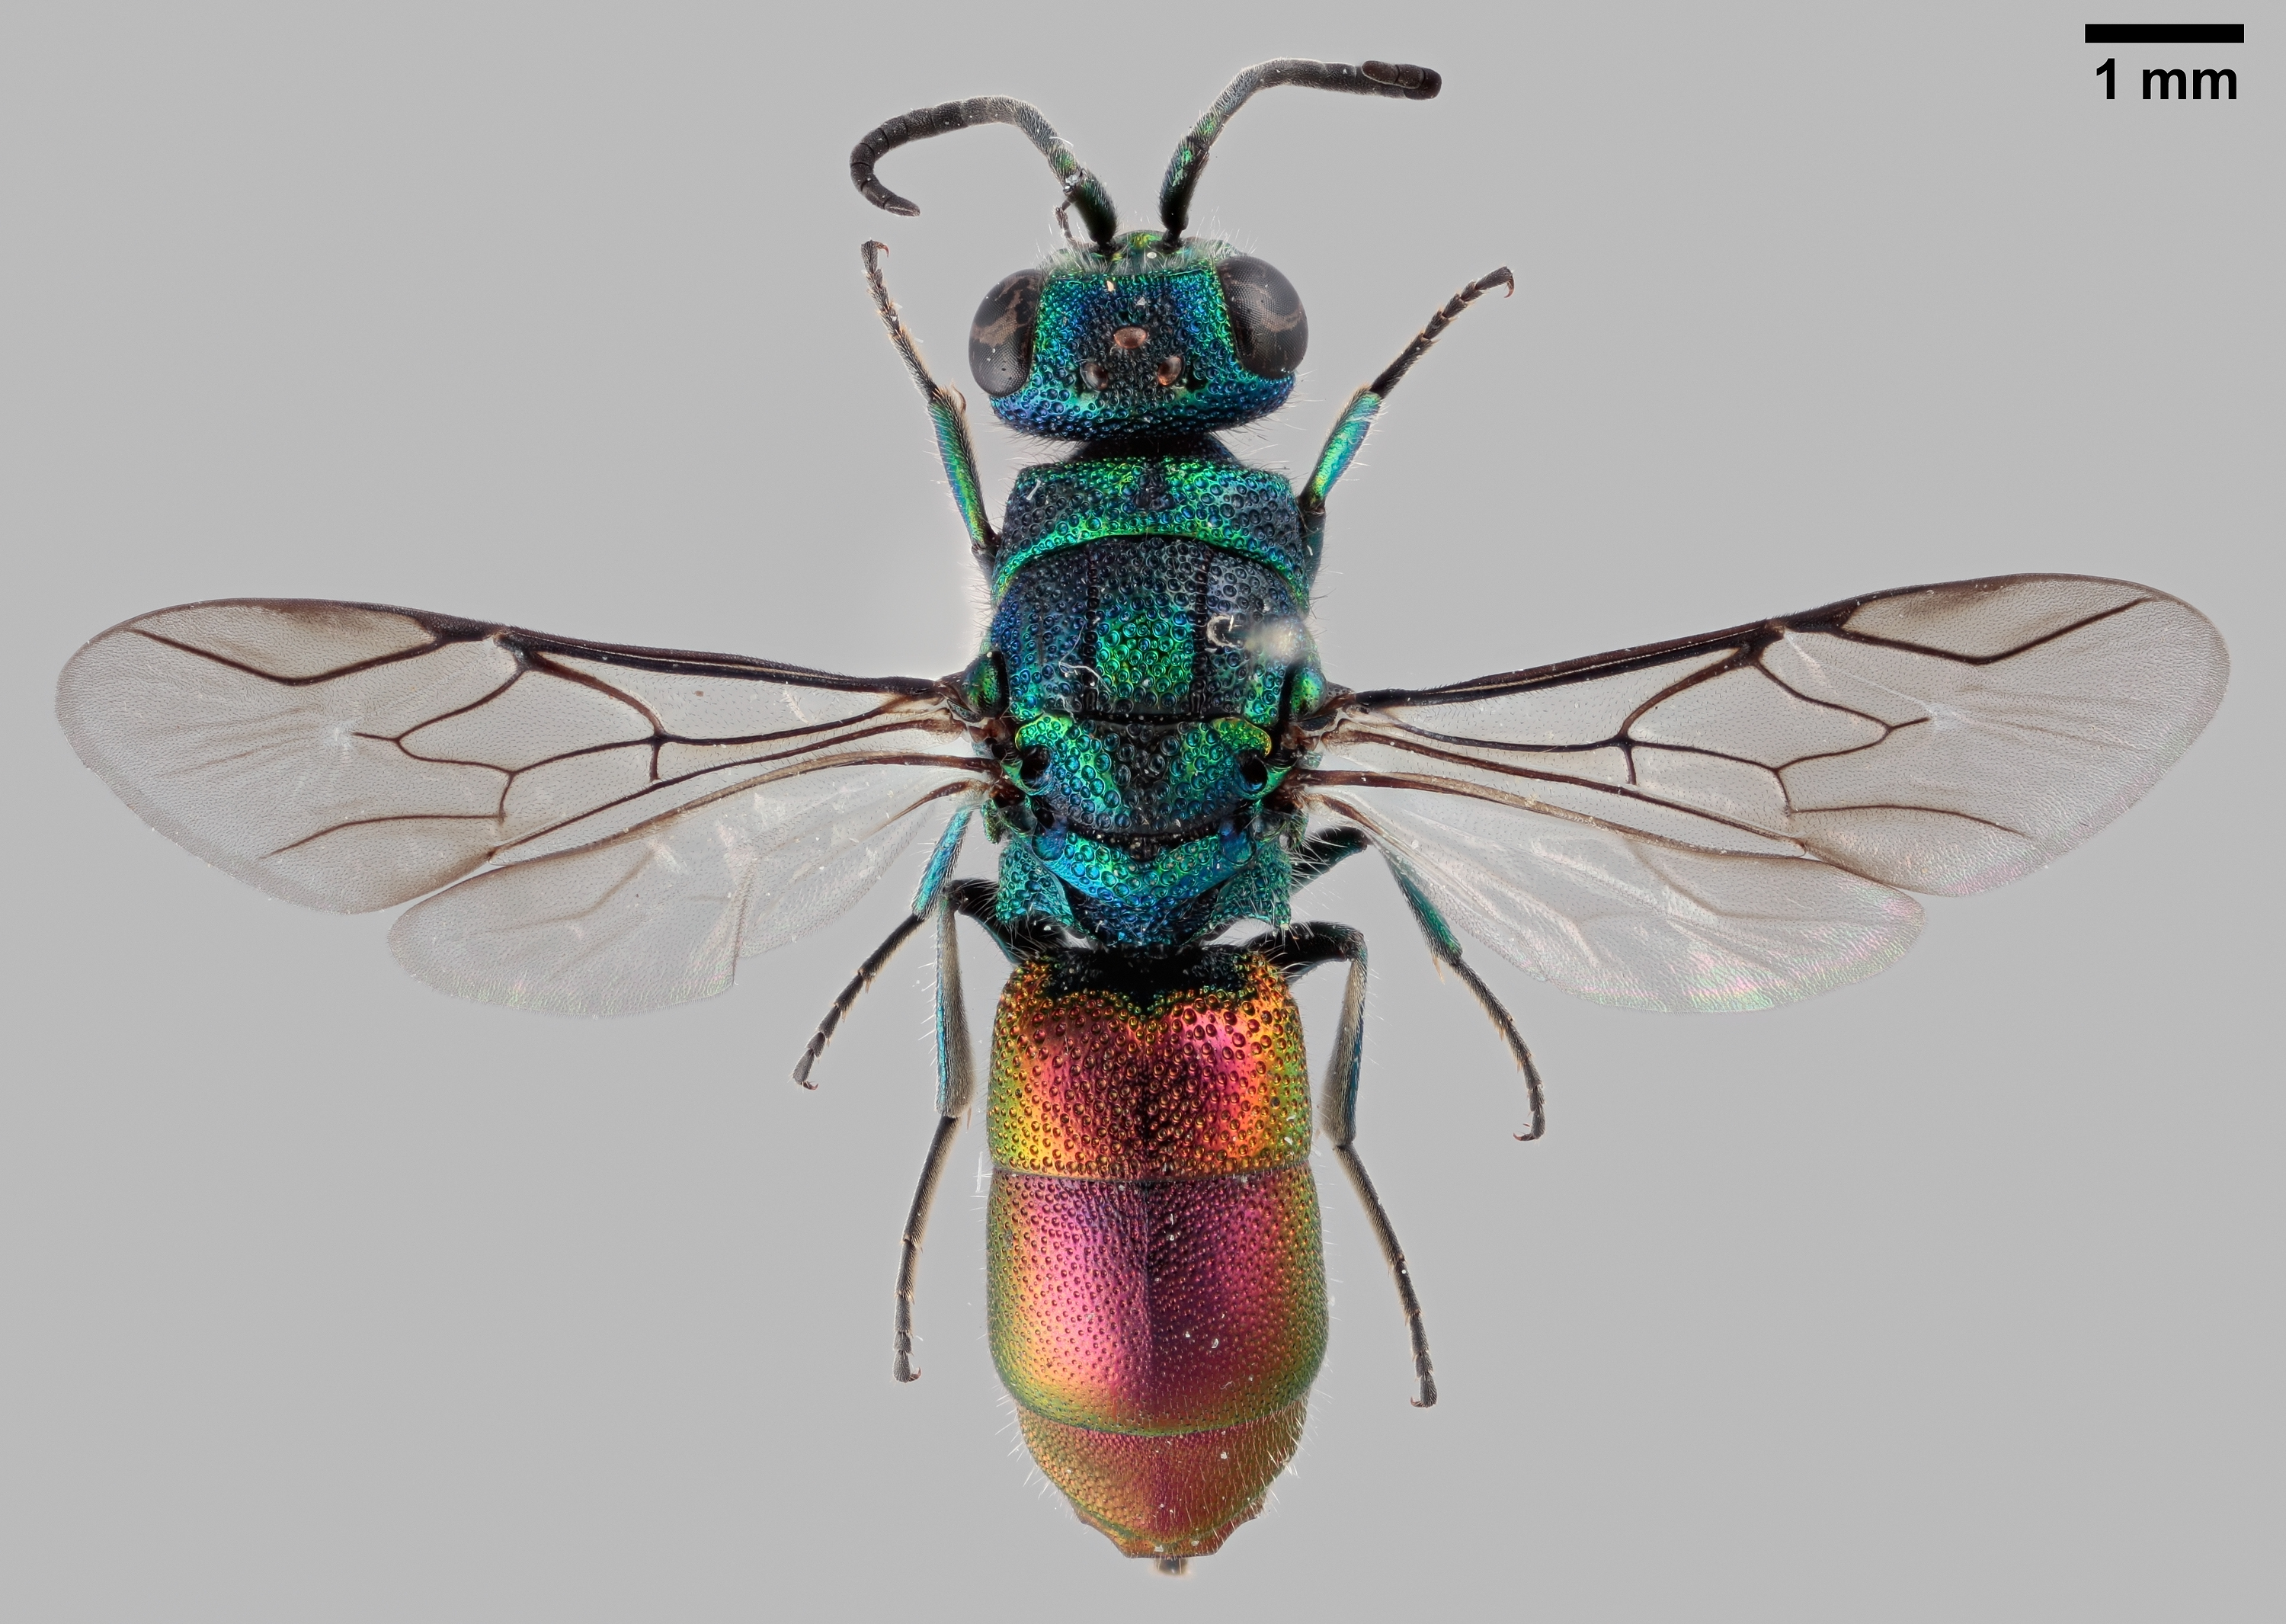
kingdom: Animalia
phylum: Arthropoda
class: Insecta
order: Hymenoptera
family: Chrysididae
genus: Chrysis
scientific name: Chrysis angustula
